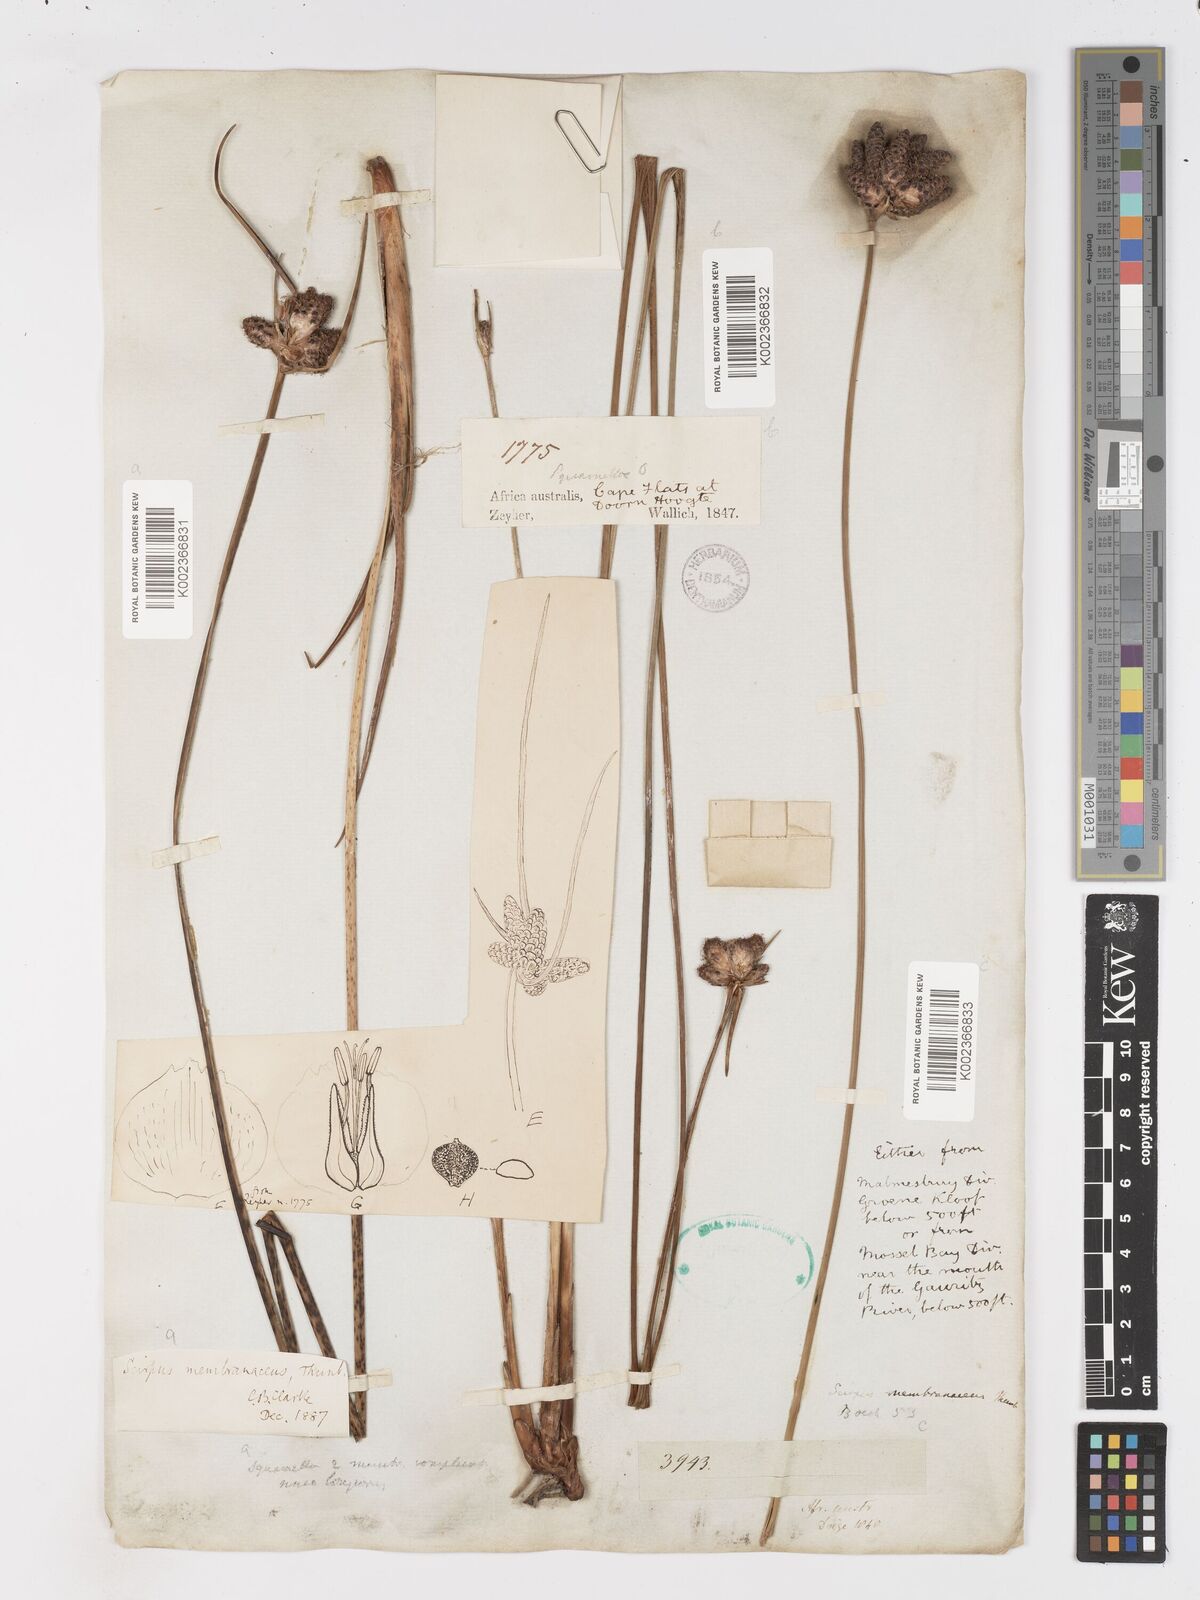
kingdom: Plantae
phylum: Tracheophyta
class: Liliopsida
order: Poales
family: Cyperaceae
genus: Hellmuthia
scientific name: Hellmuthia membranacea
